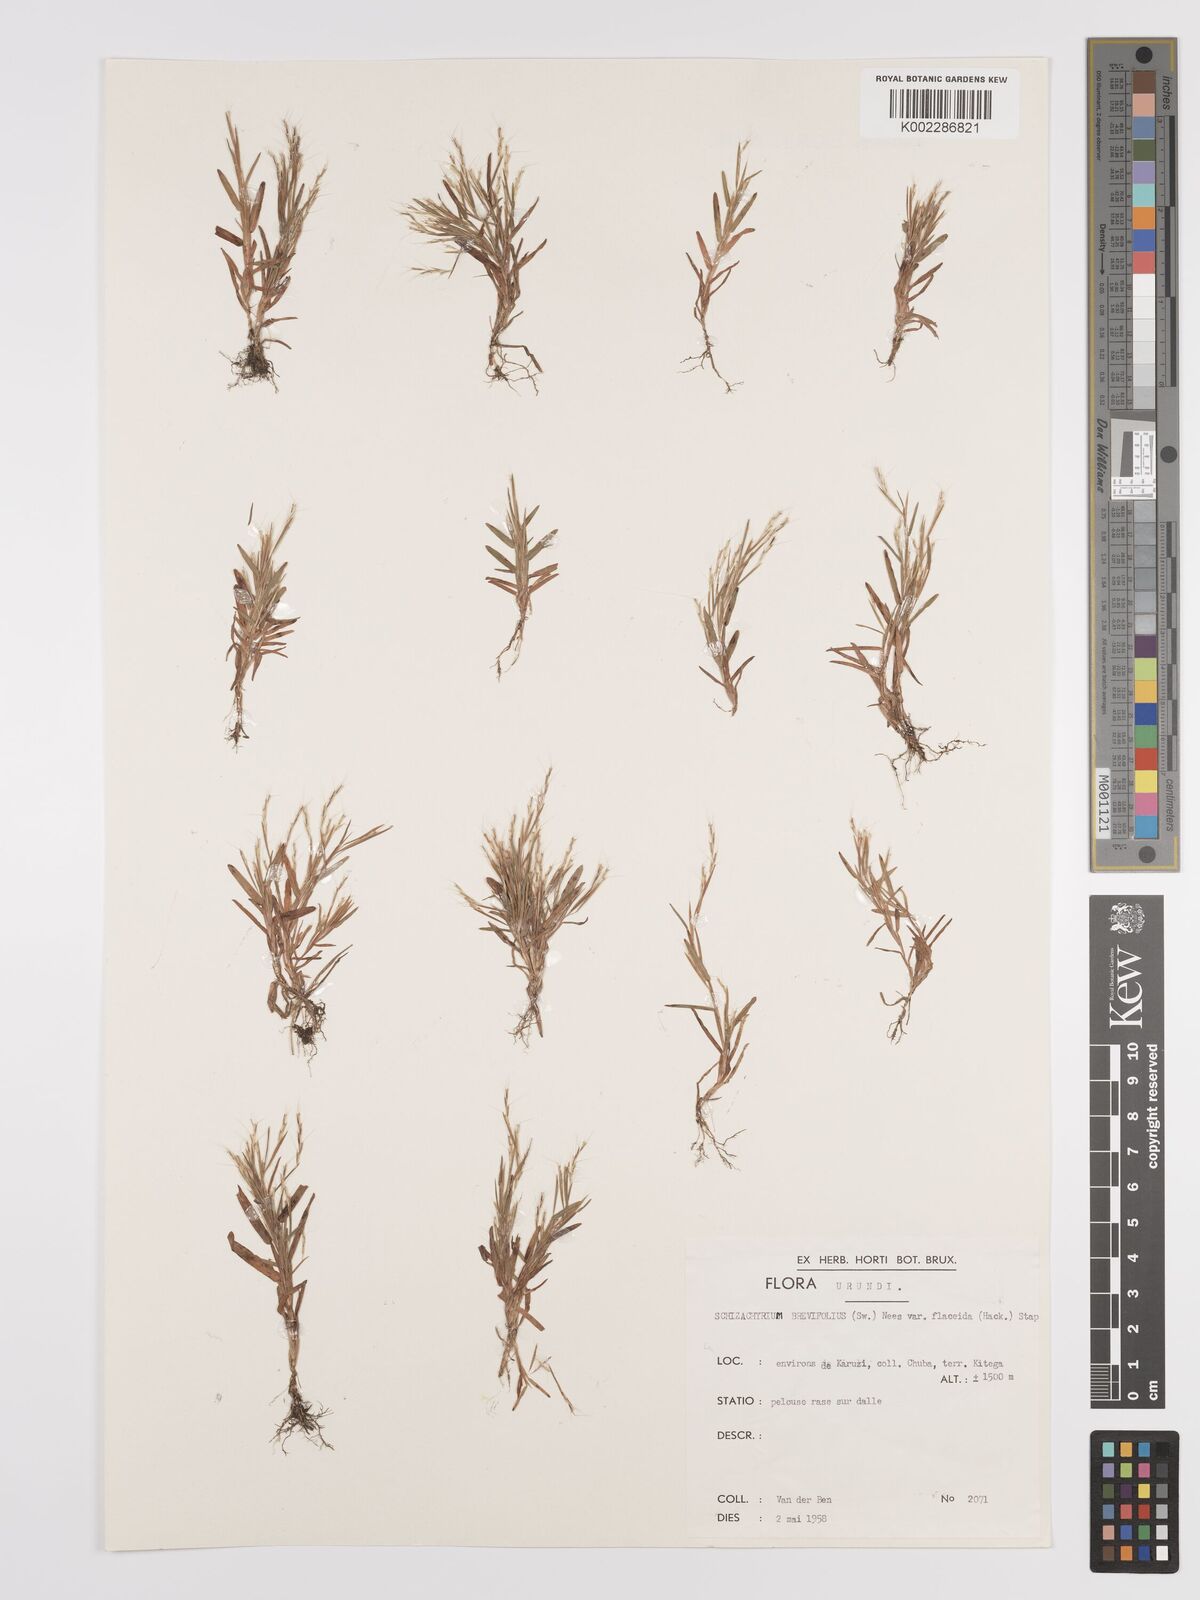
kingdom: Plantae
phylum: Tracheophyta
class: Liliopsida
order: Poales
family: Poaceae
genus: Schizachyrium
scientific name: Schizachyrium brevifolium
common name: Serillo dulce
